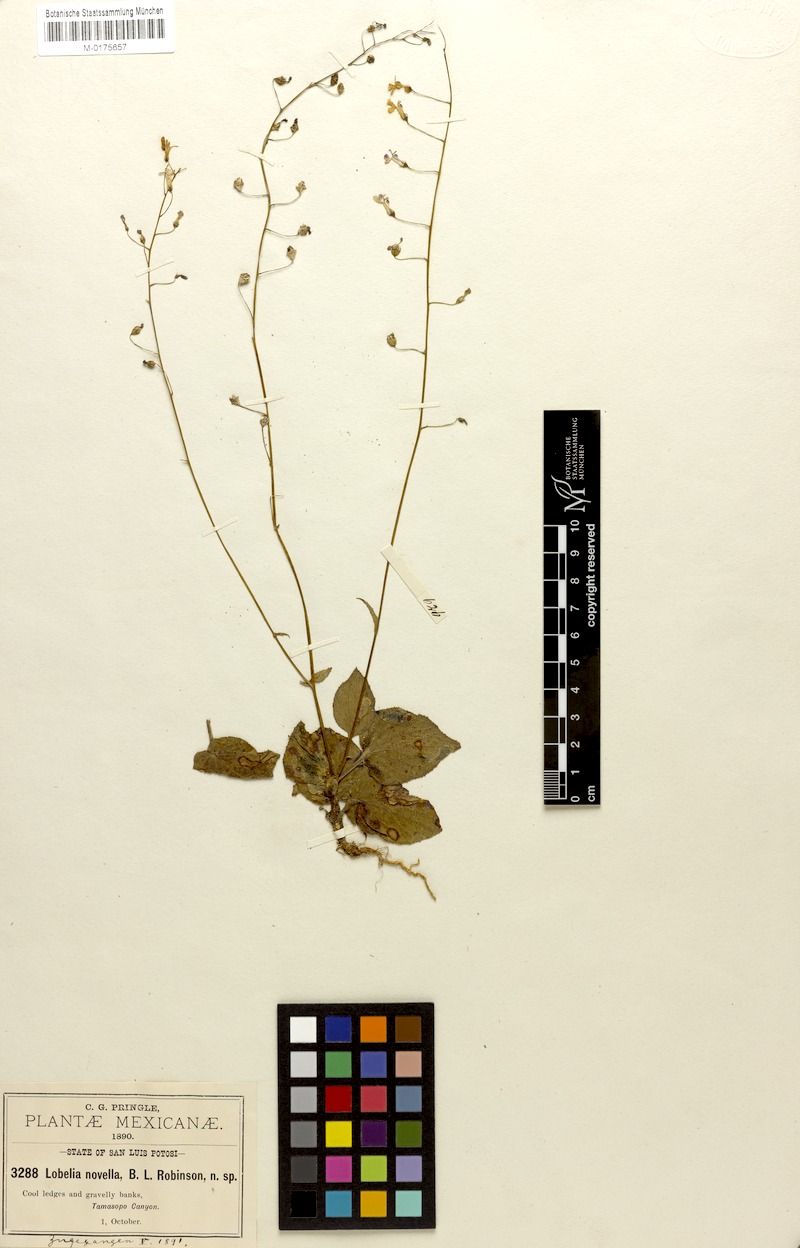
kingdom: Plantae
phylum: Tracheophyta
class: Magnoliopsida
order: Asterales
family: Campanulaceae
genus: Lobelia
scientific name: Lobelia sartorii
